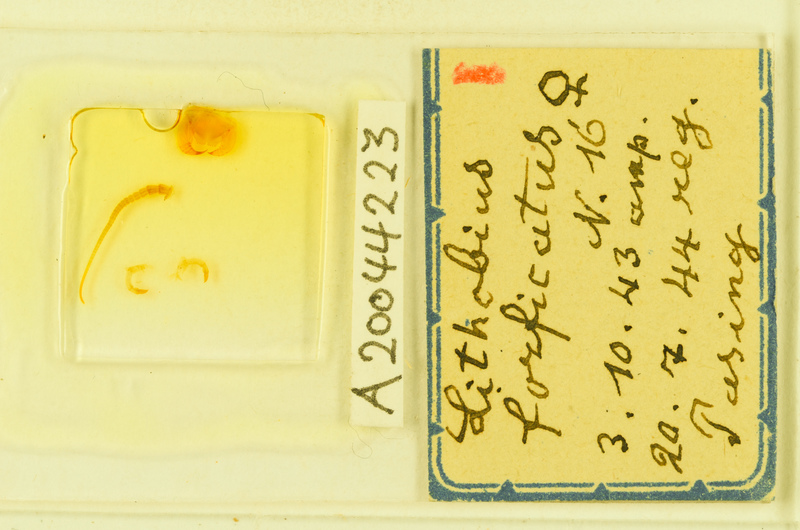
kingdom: Animalia
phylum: Arthropoda
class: Chilopoda
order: Lithobiomorpha
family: Lithobiidae
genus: Lithobius
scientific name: Lithobius forficatus
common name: Centipede
